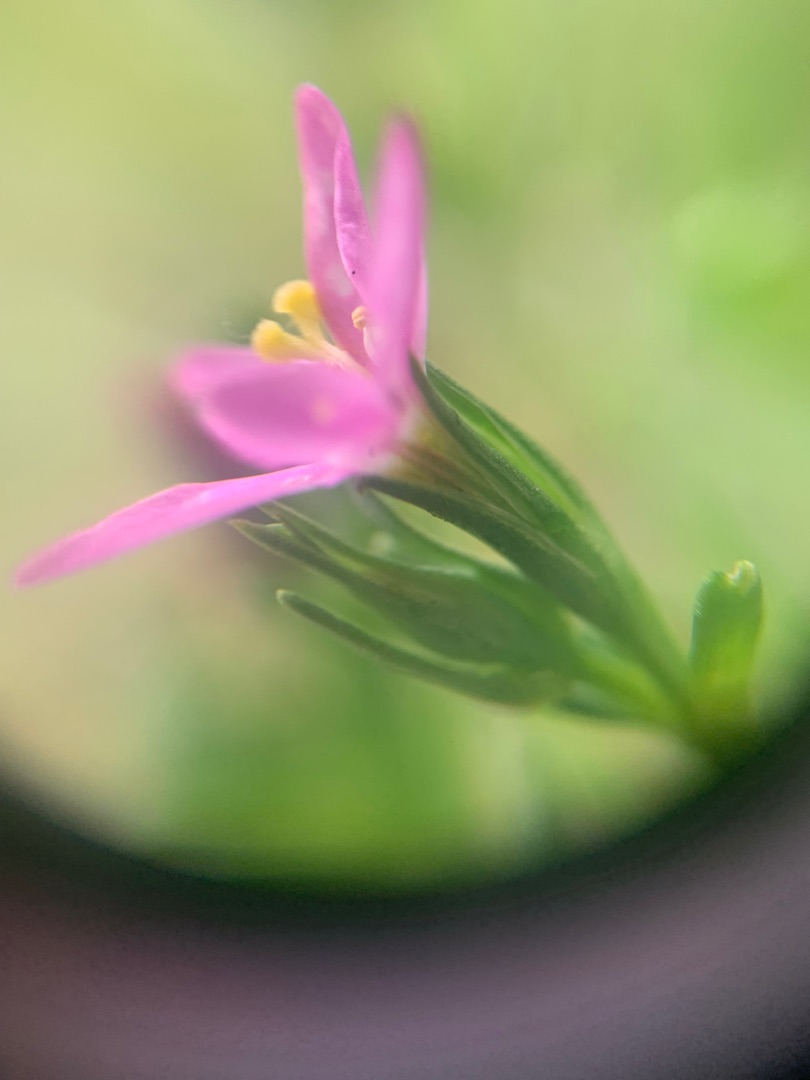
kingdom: Plantae
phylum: Tracheophyta
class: Magnoliopsida
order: Gentianales
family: Gentianaceae
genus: Centaurium
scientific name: Centaurium littorale
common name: Strand-tusindgylden
